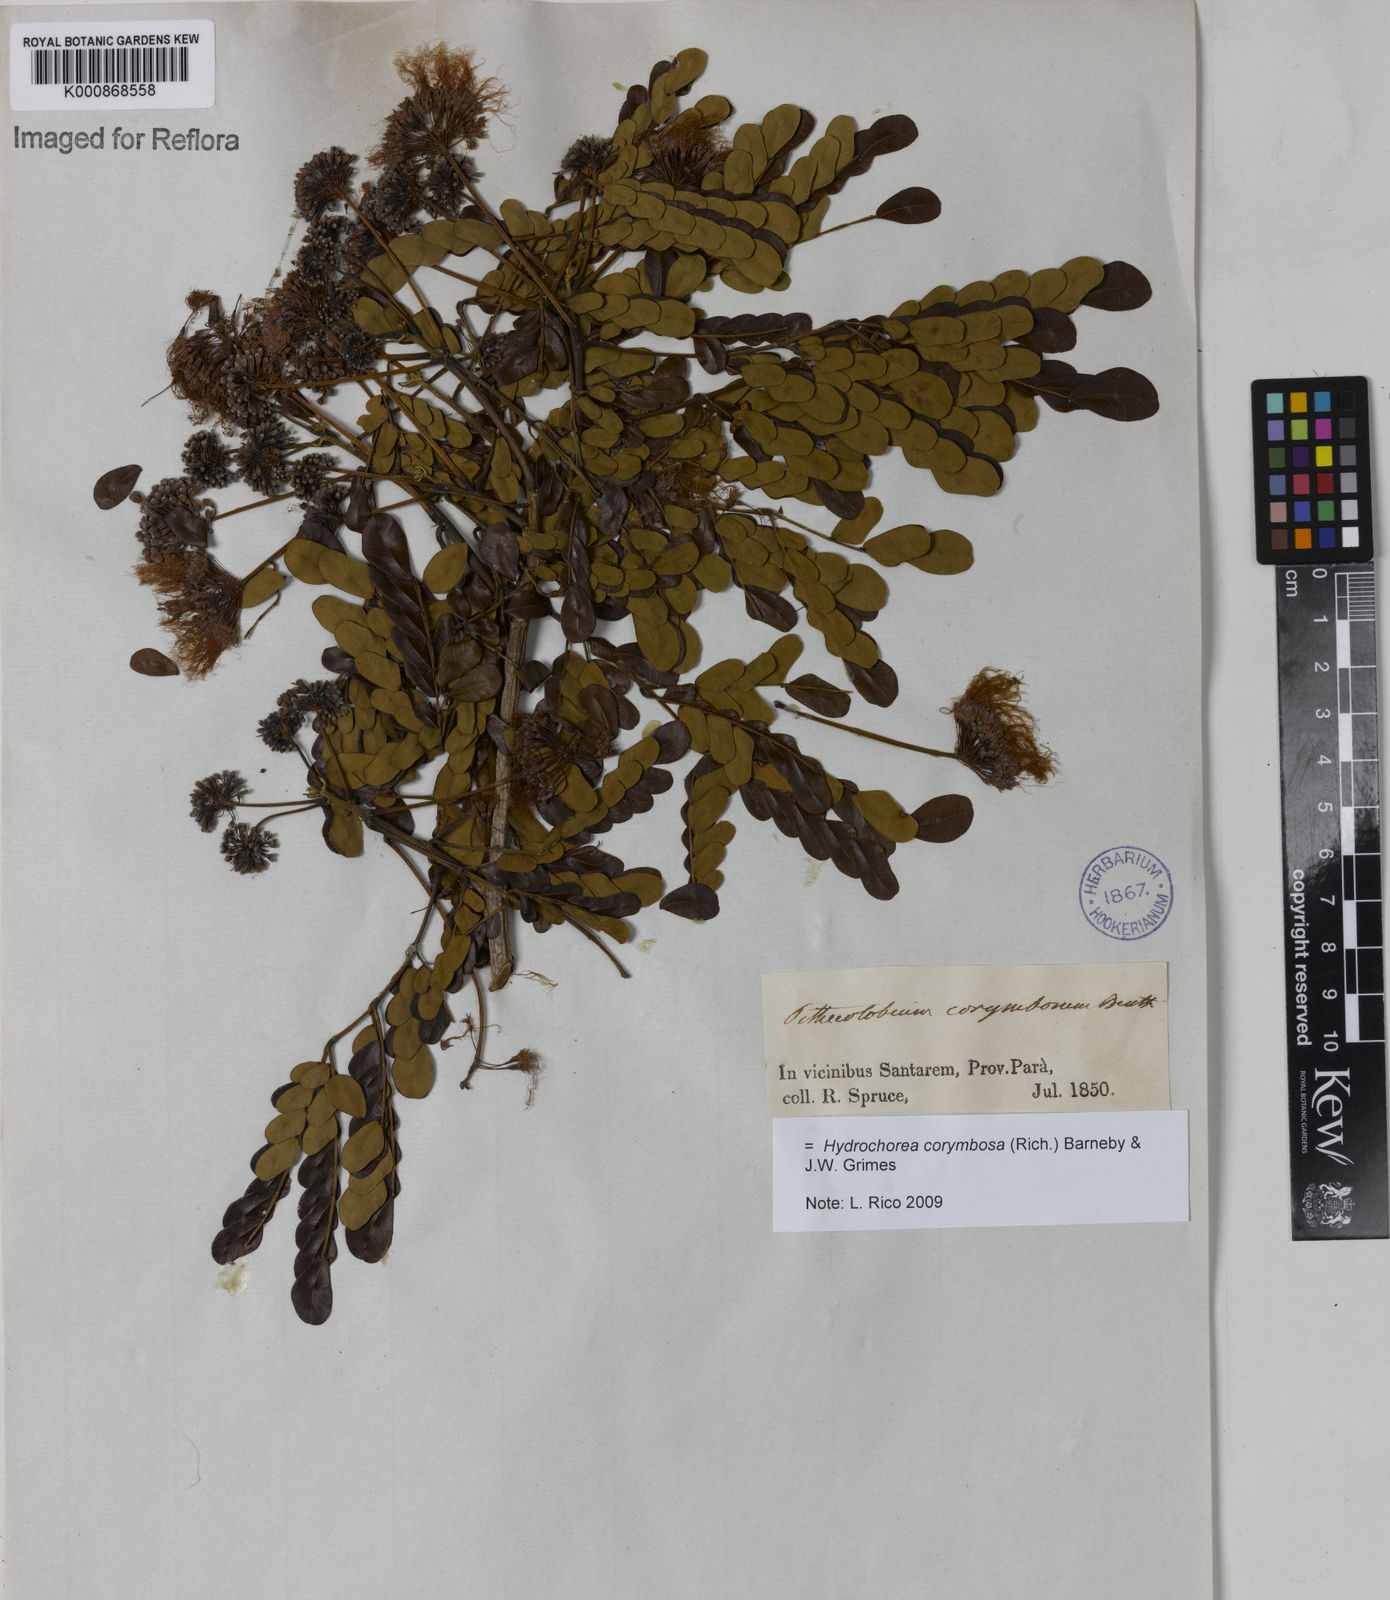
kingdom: Plantae
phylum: Tracheophyta
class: Magnoliopsida
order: Fabales
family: Fabaceae
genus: Hydrochorea
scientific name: Hydrochorea corymbosa
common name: Swamp manariballi
